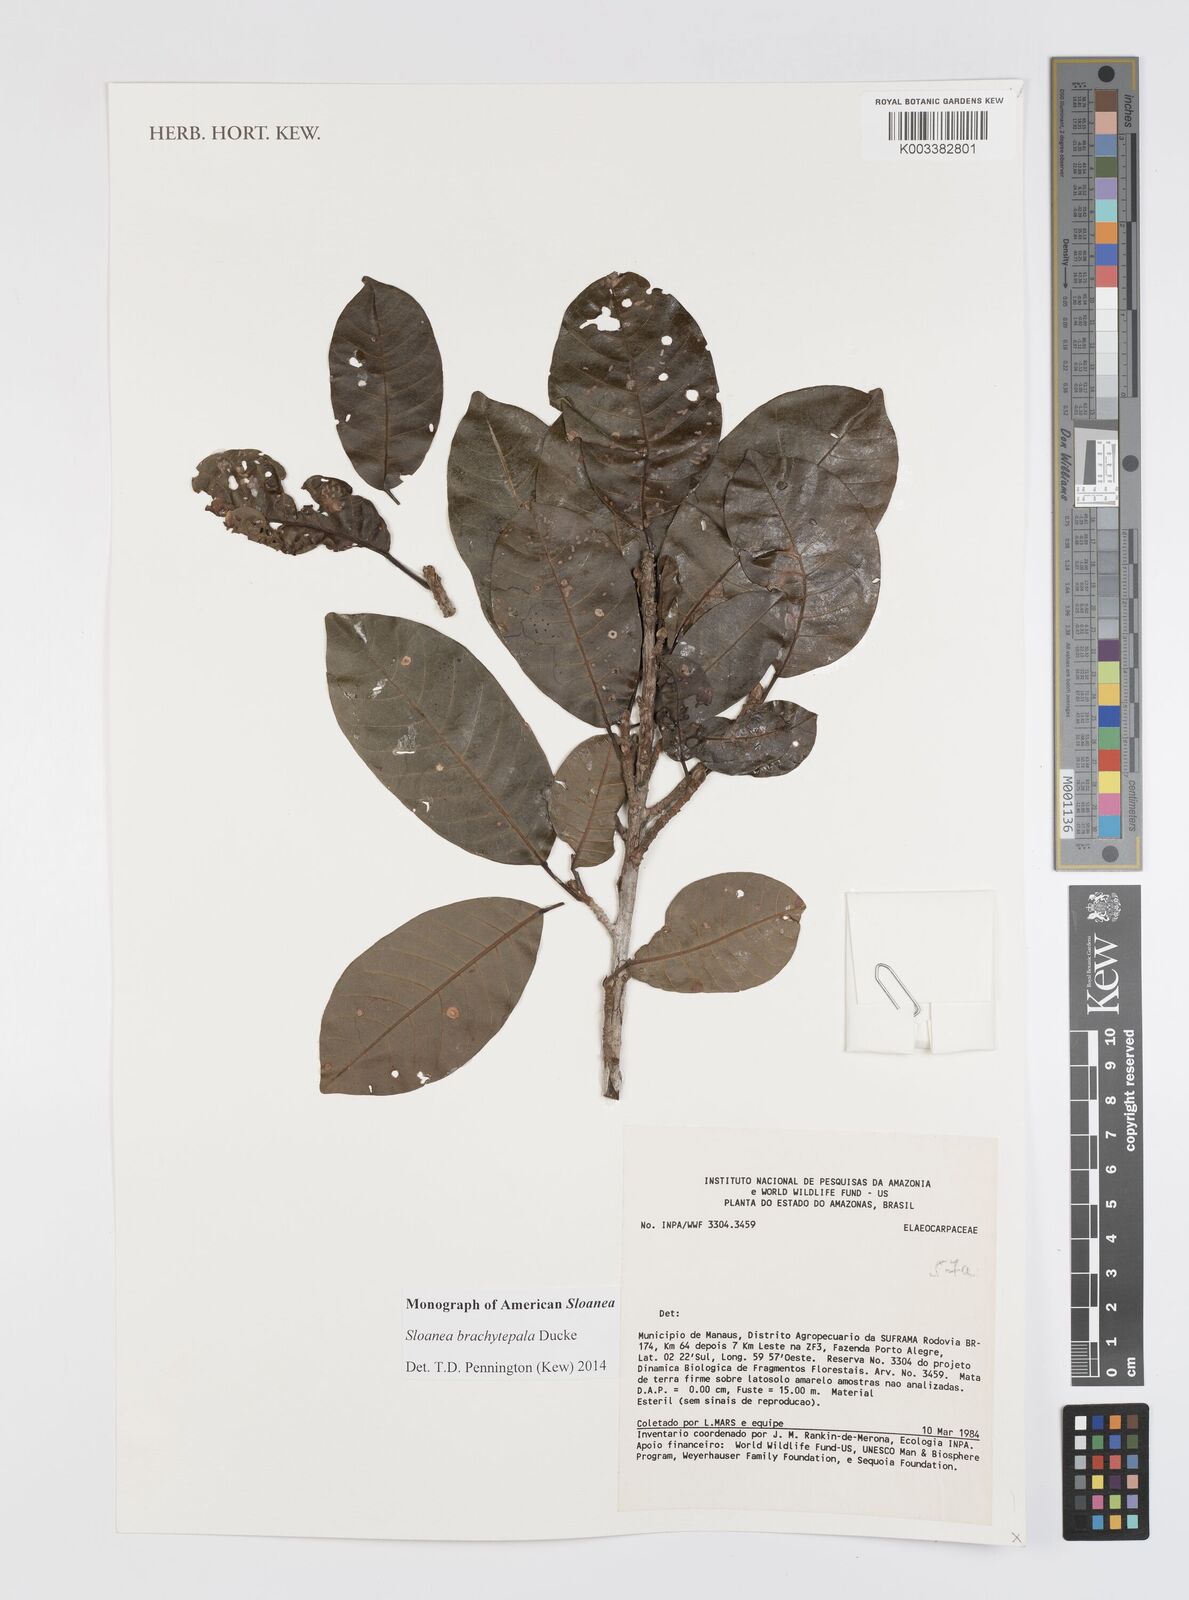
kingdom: Plantae
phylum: Tracheophyta
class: Magnoliopsida
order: Oxalidales
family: Elaeocarpaceae
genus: Sloanea
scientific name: Sloanea brachytepala
